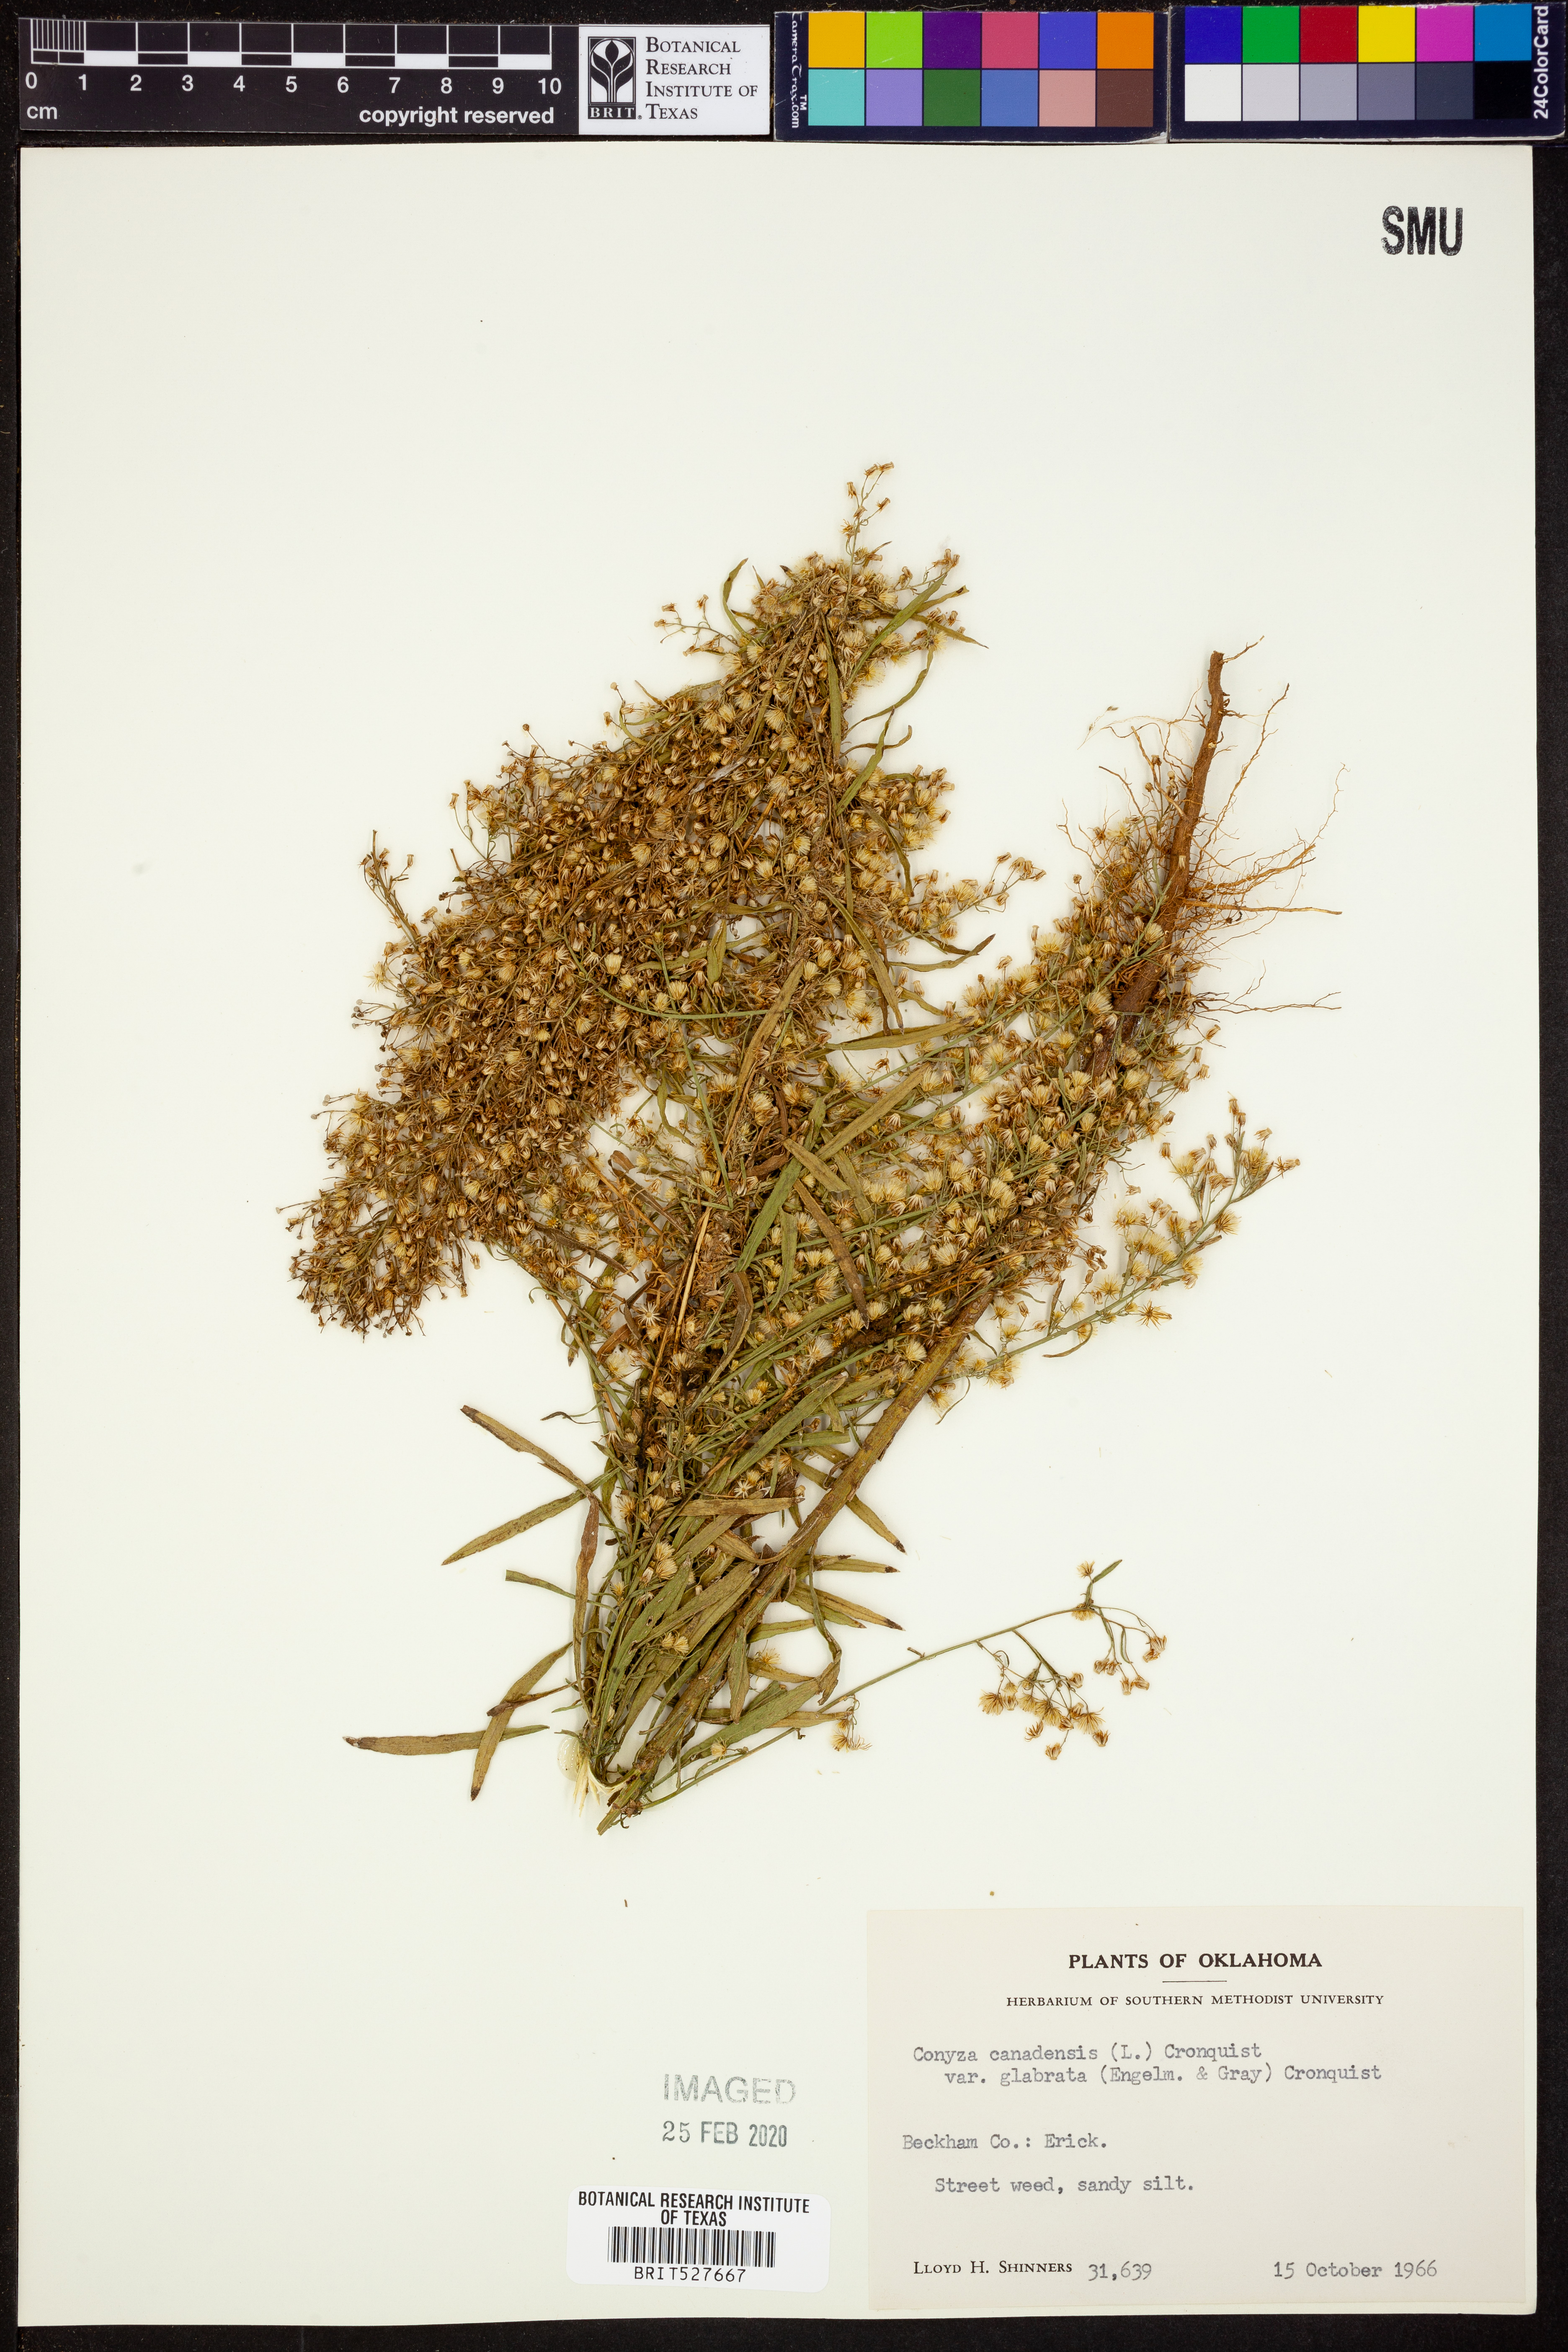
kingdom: Plantae
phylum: Tracheophyta
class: Magnoliopsida
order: Asterales
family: Asteraceae
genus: Erigeron
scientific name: Erigeron canadensis
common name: Canadian fleabane
